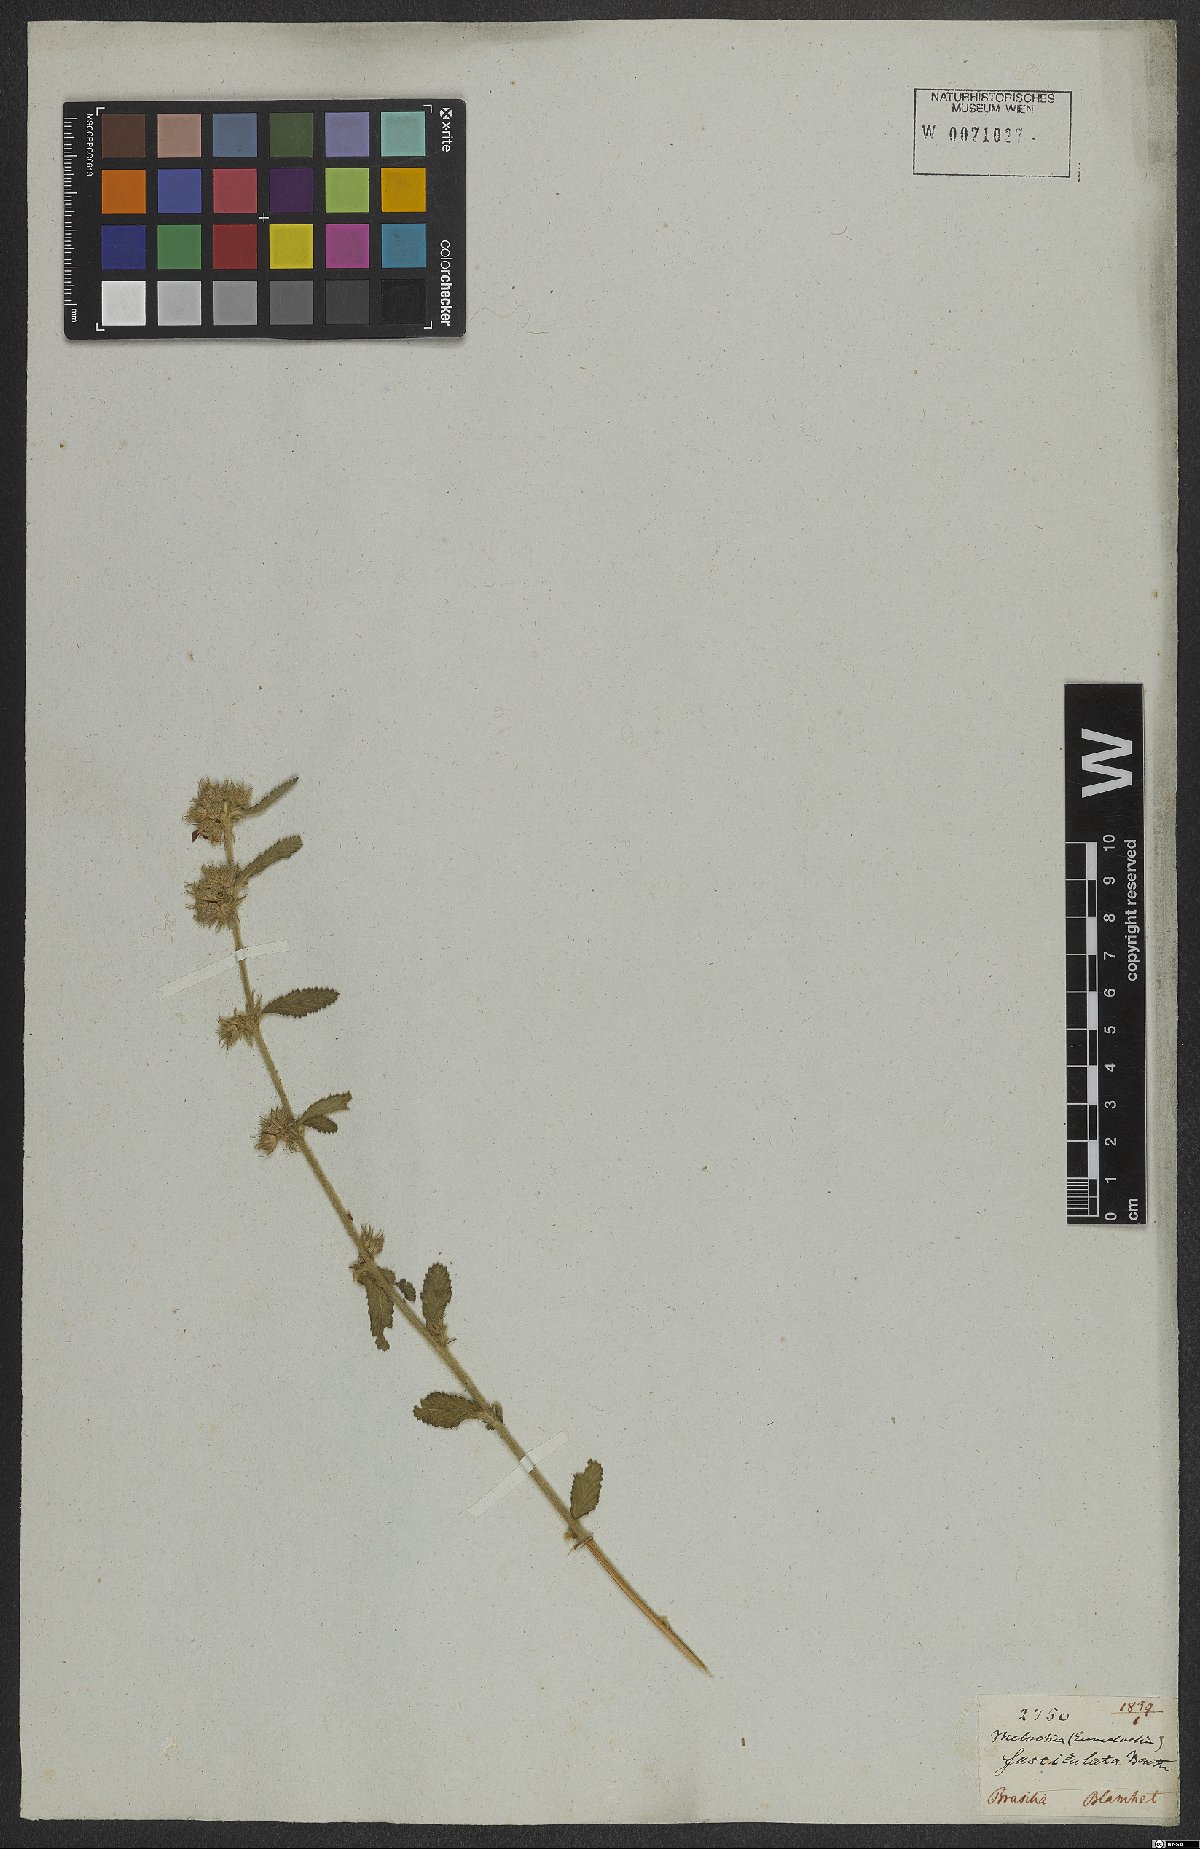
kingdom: Plantae
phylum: Tracheophyta
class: Magnoliopsida
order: Malvales
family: Malvaceae
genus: Melochia
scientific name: Melochia parvifolia
